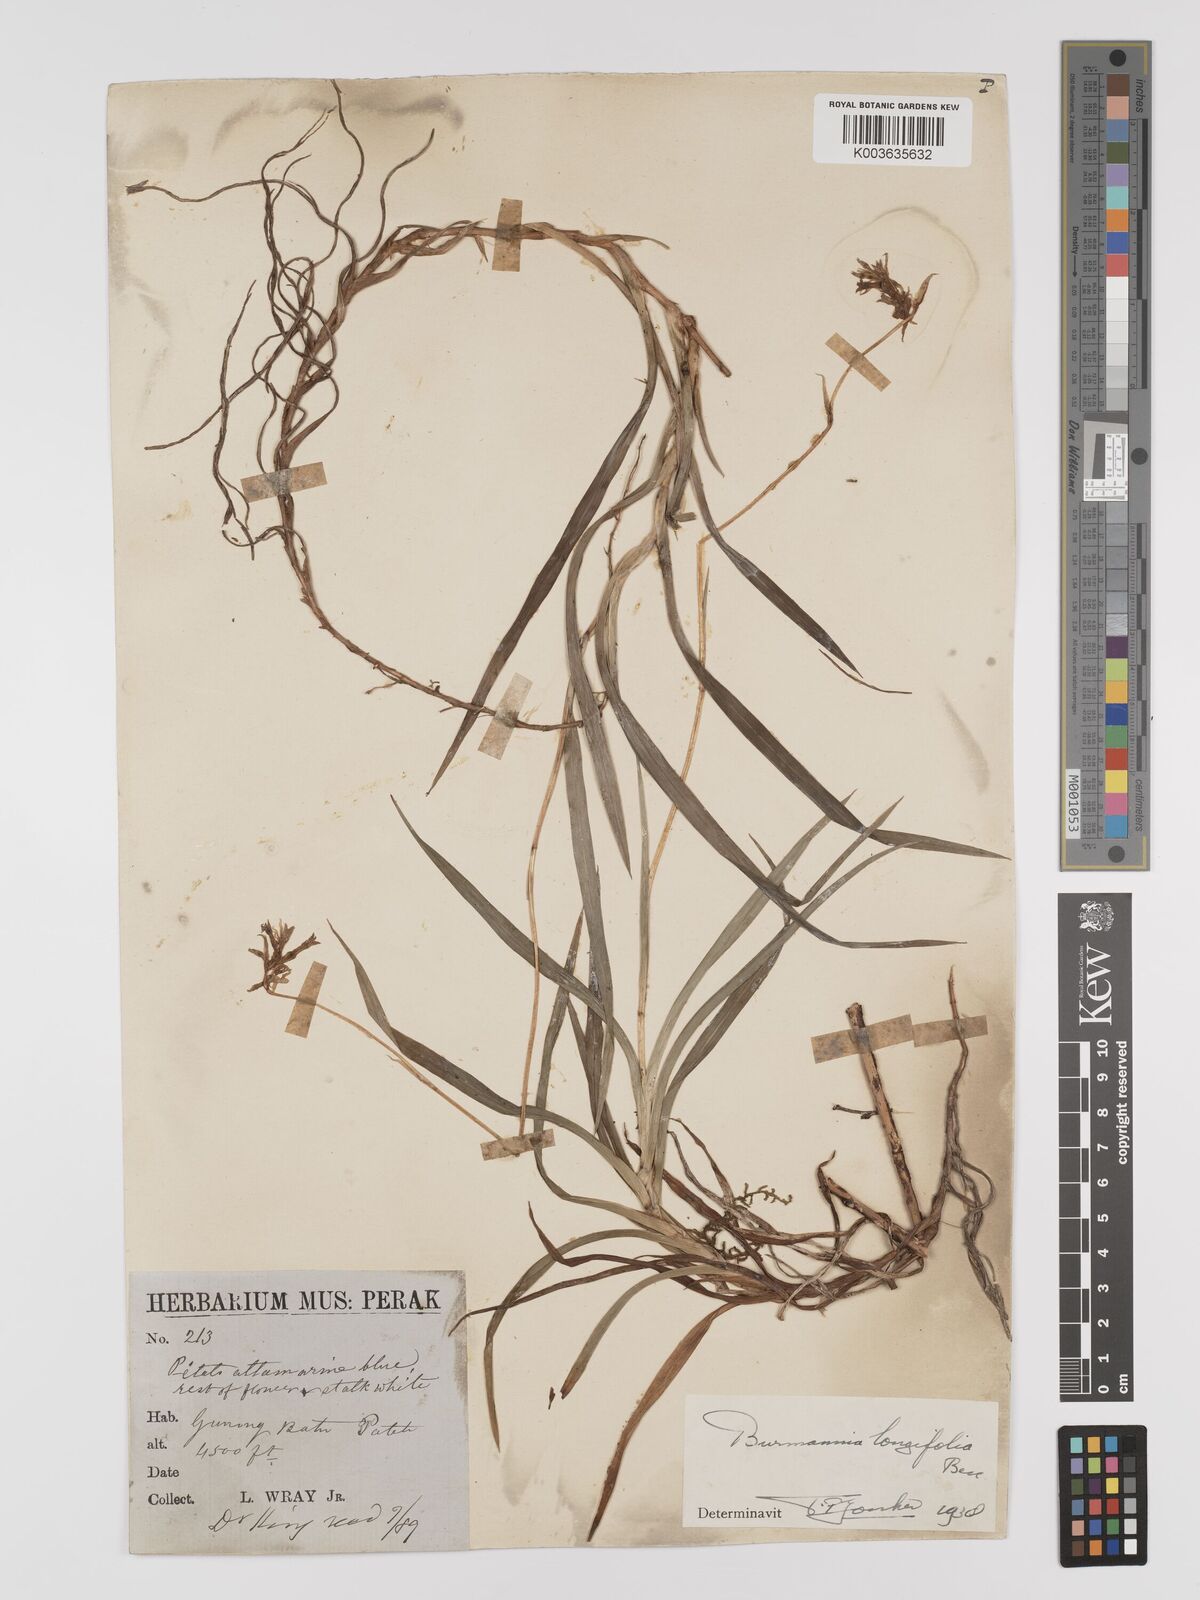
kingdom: Plantae
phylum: Tracheophyta
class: Liliopsida
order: Dioscoreales
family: Burmanniaceae
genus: Burmannia
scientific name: Burmannia longifolia
